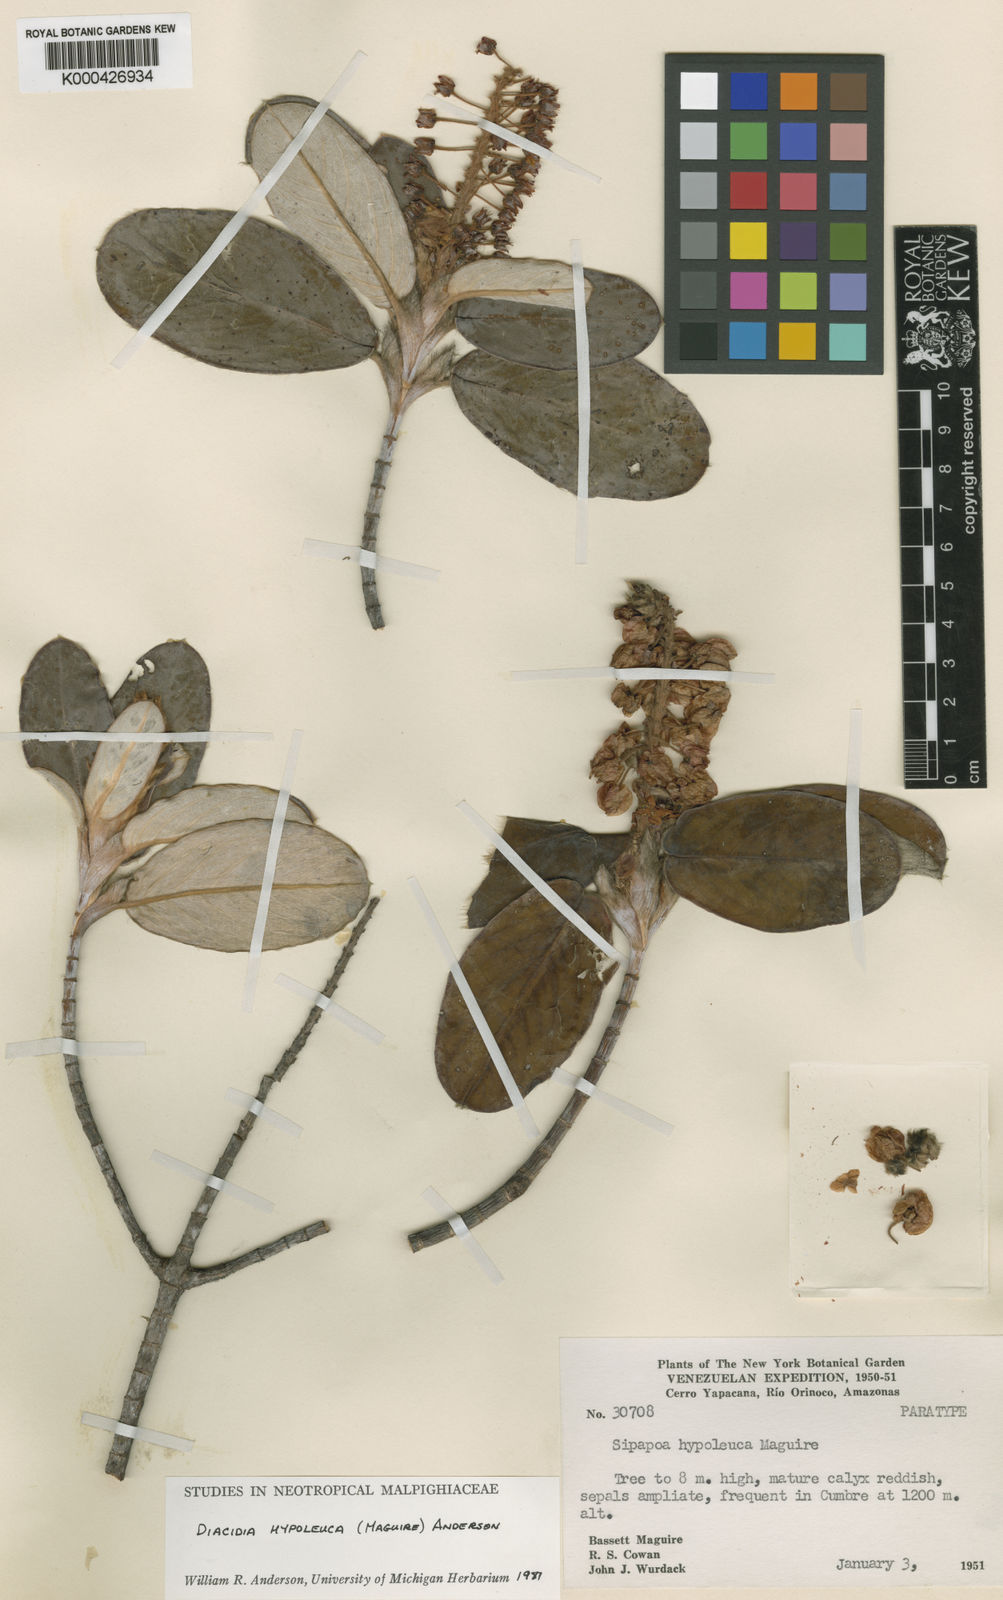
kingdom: Plantae
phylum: Tracheophyta
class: Magnoliopsida
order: Malpighiales
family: Malpighiaceae
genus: Diacidia
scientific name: Diacidia hypoleuca
